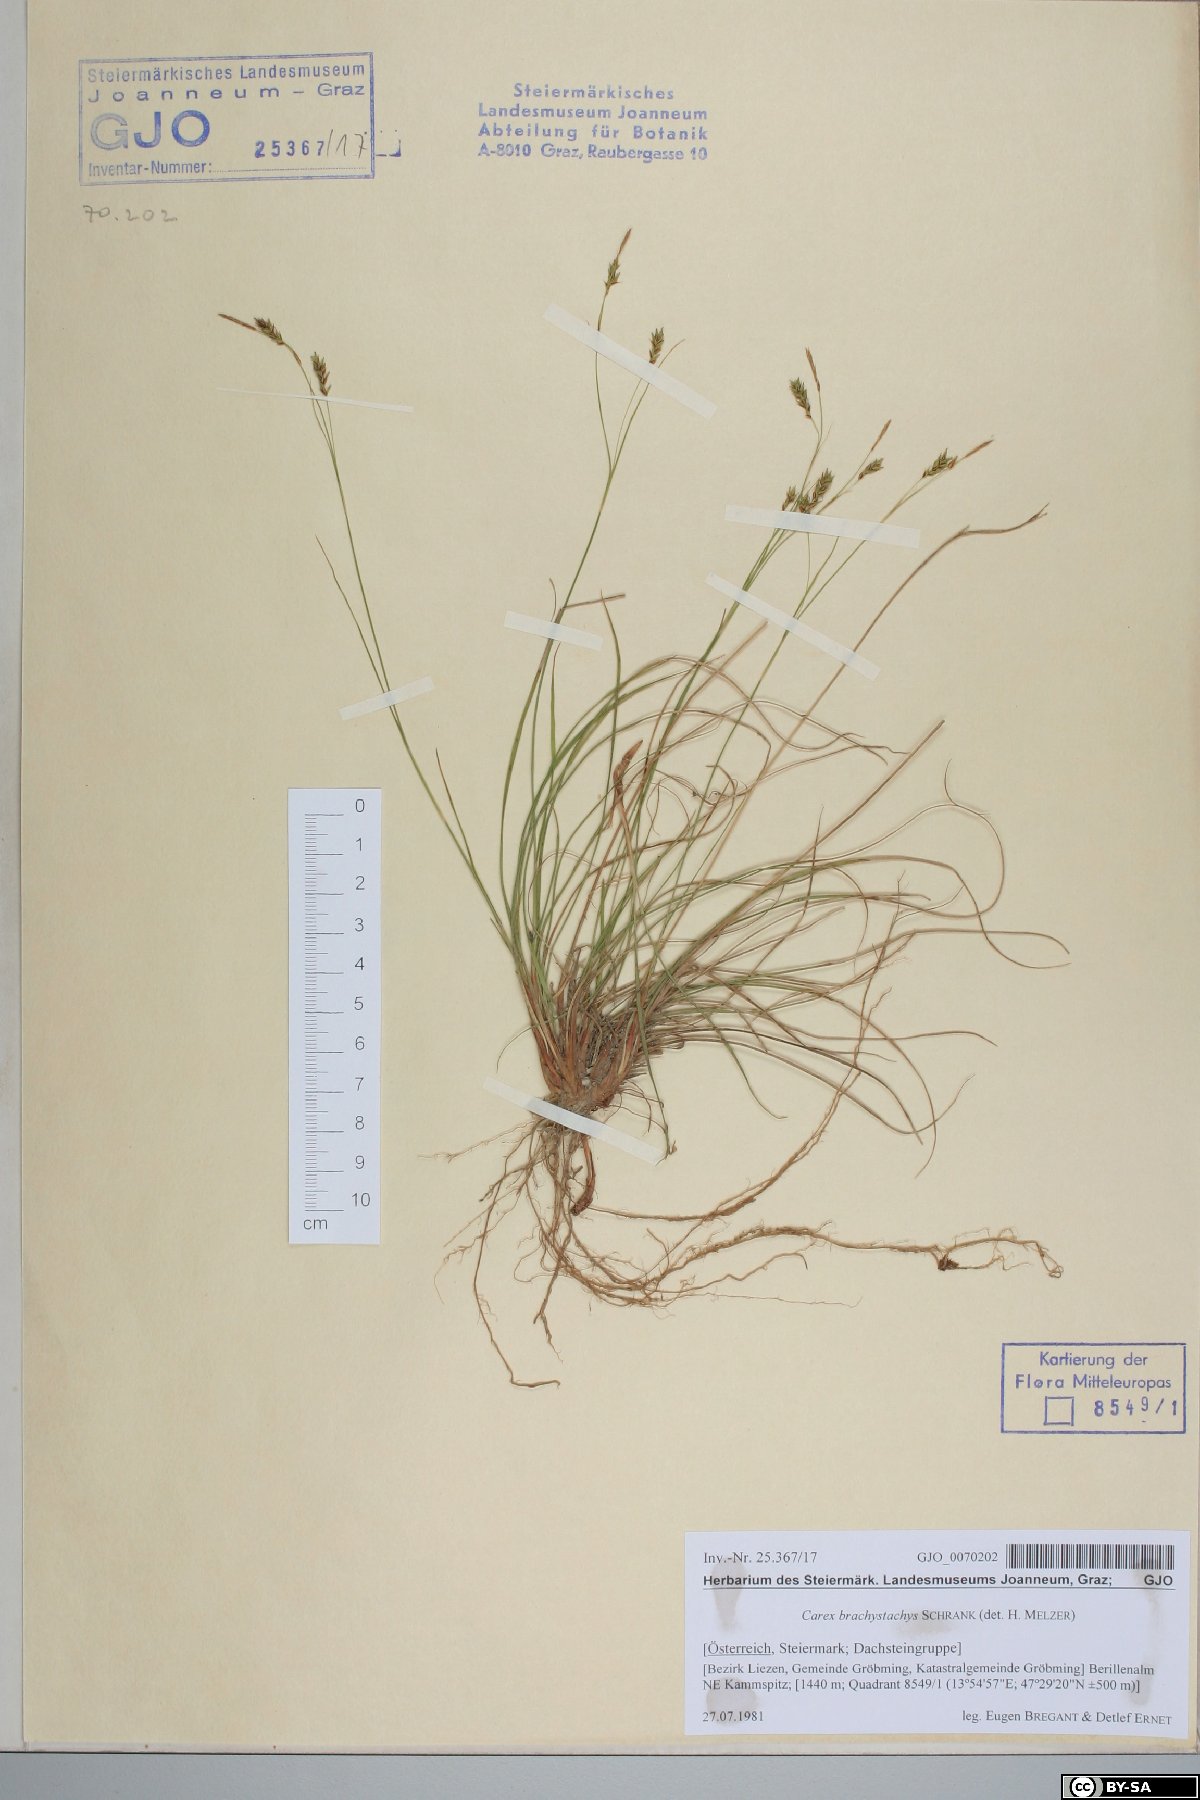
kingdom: Plantae
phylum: Tracheophyta
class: Liliopsida
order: Poales
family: Cyperaceae
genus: Carex
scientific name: Carex brachystachys
